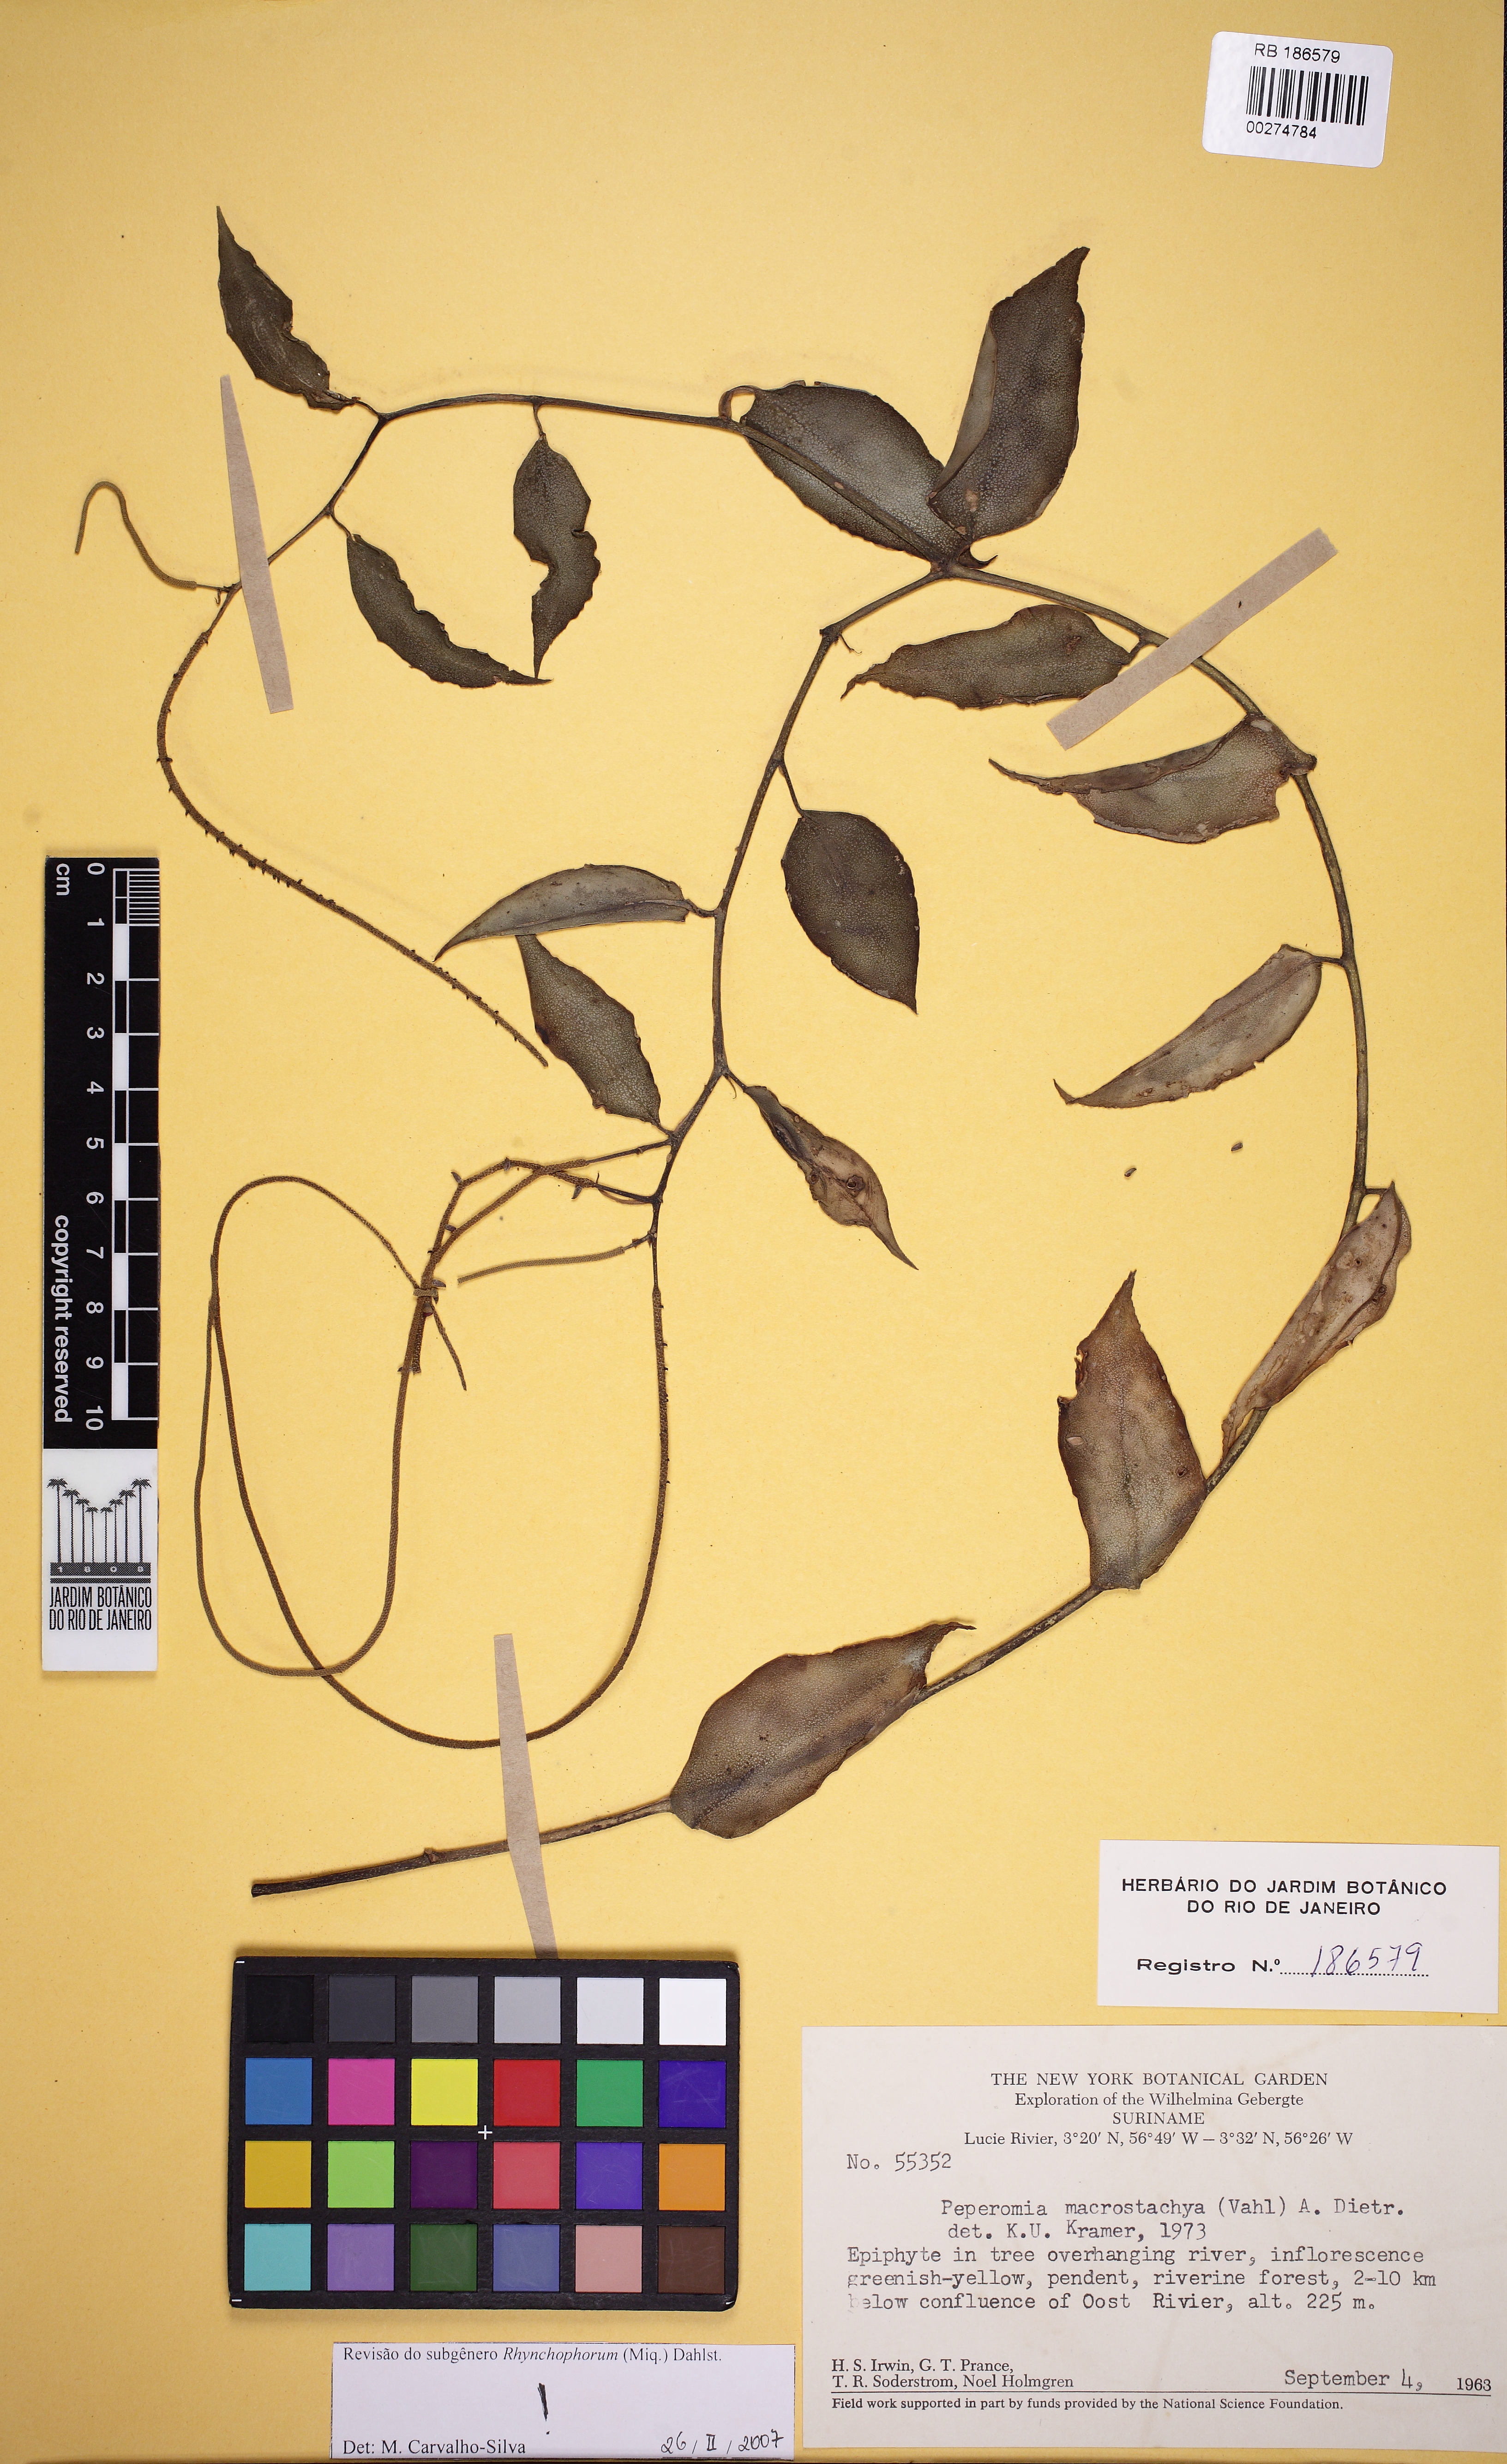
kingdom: Plantae
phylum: Tracheophyta
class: Magnoliopsida
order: Piperales
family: Piperaceae
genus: Peperomia
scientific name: Peperomia macrostachyos
